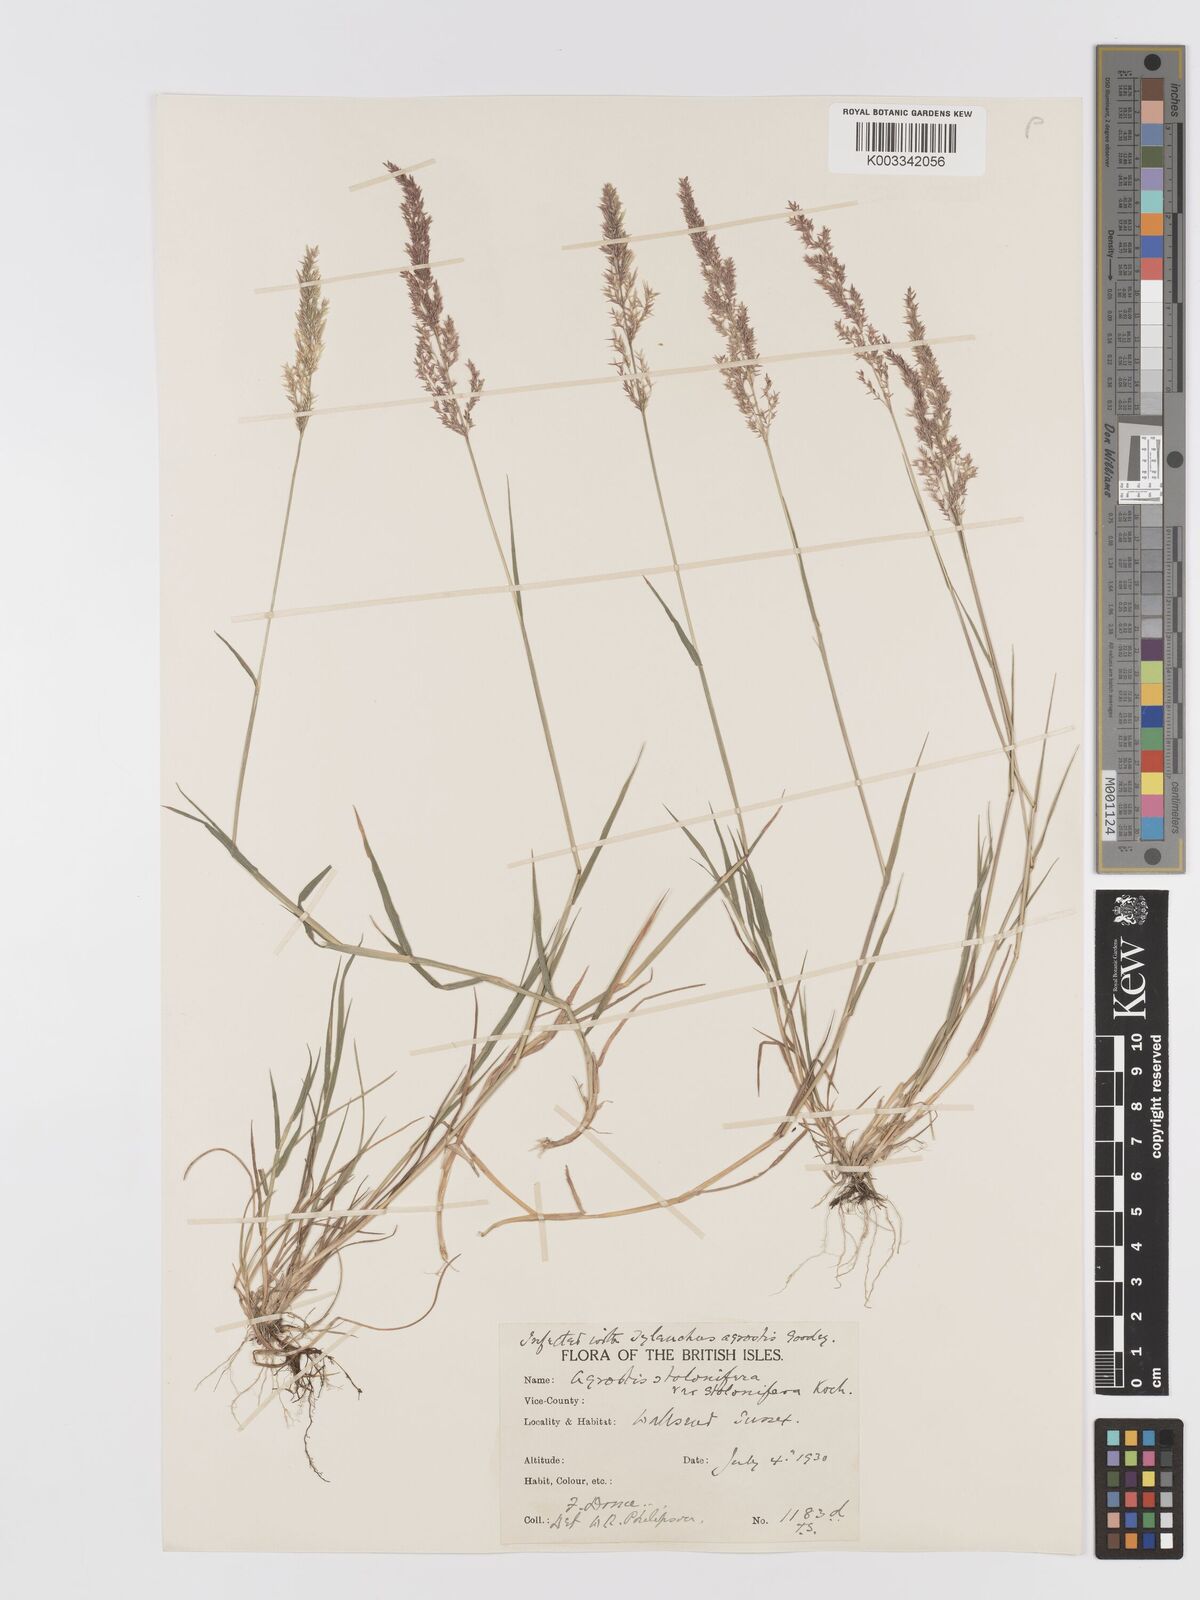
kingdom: Plantae
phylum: Tracheophyta
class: Liliopsida
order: Poales
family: Poaceae
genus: Agrostis
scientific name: Agrostis stolonifera
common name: Creeping bentgrass
